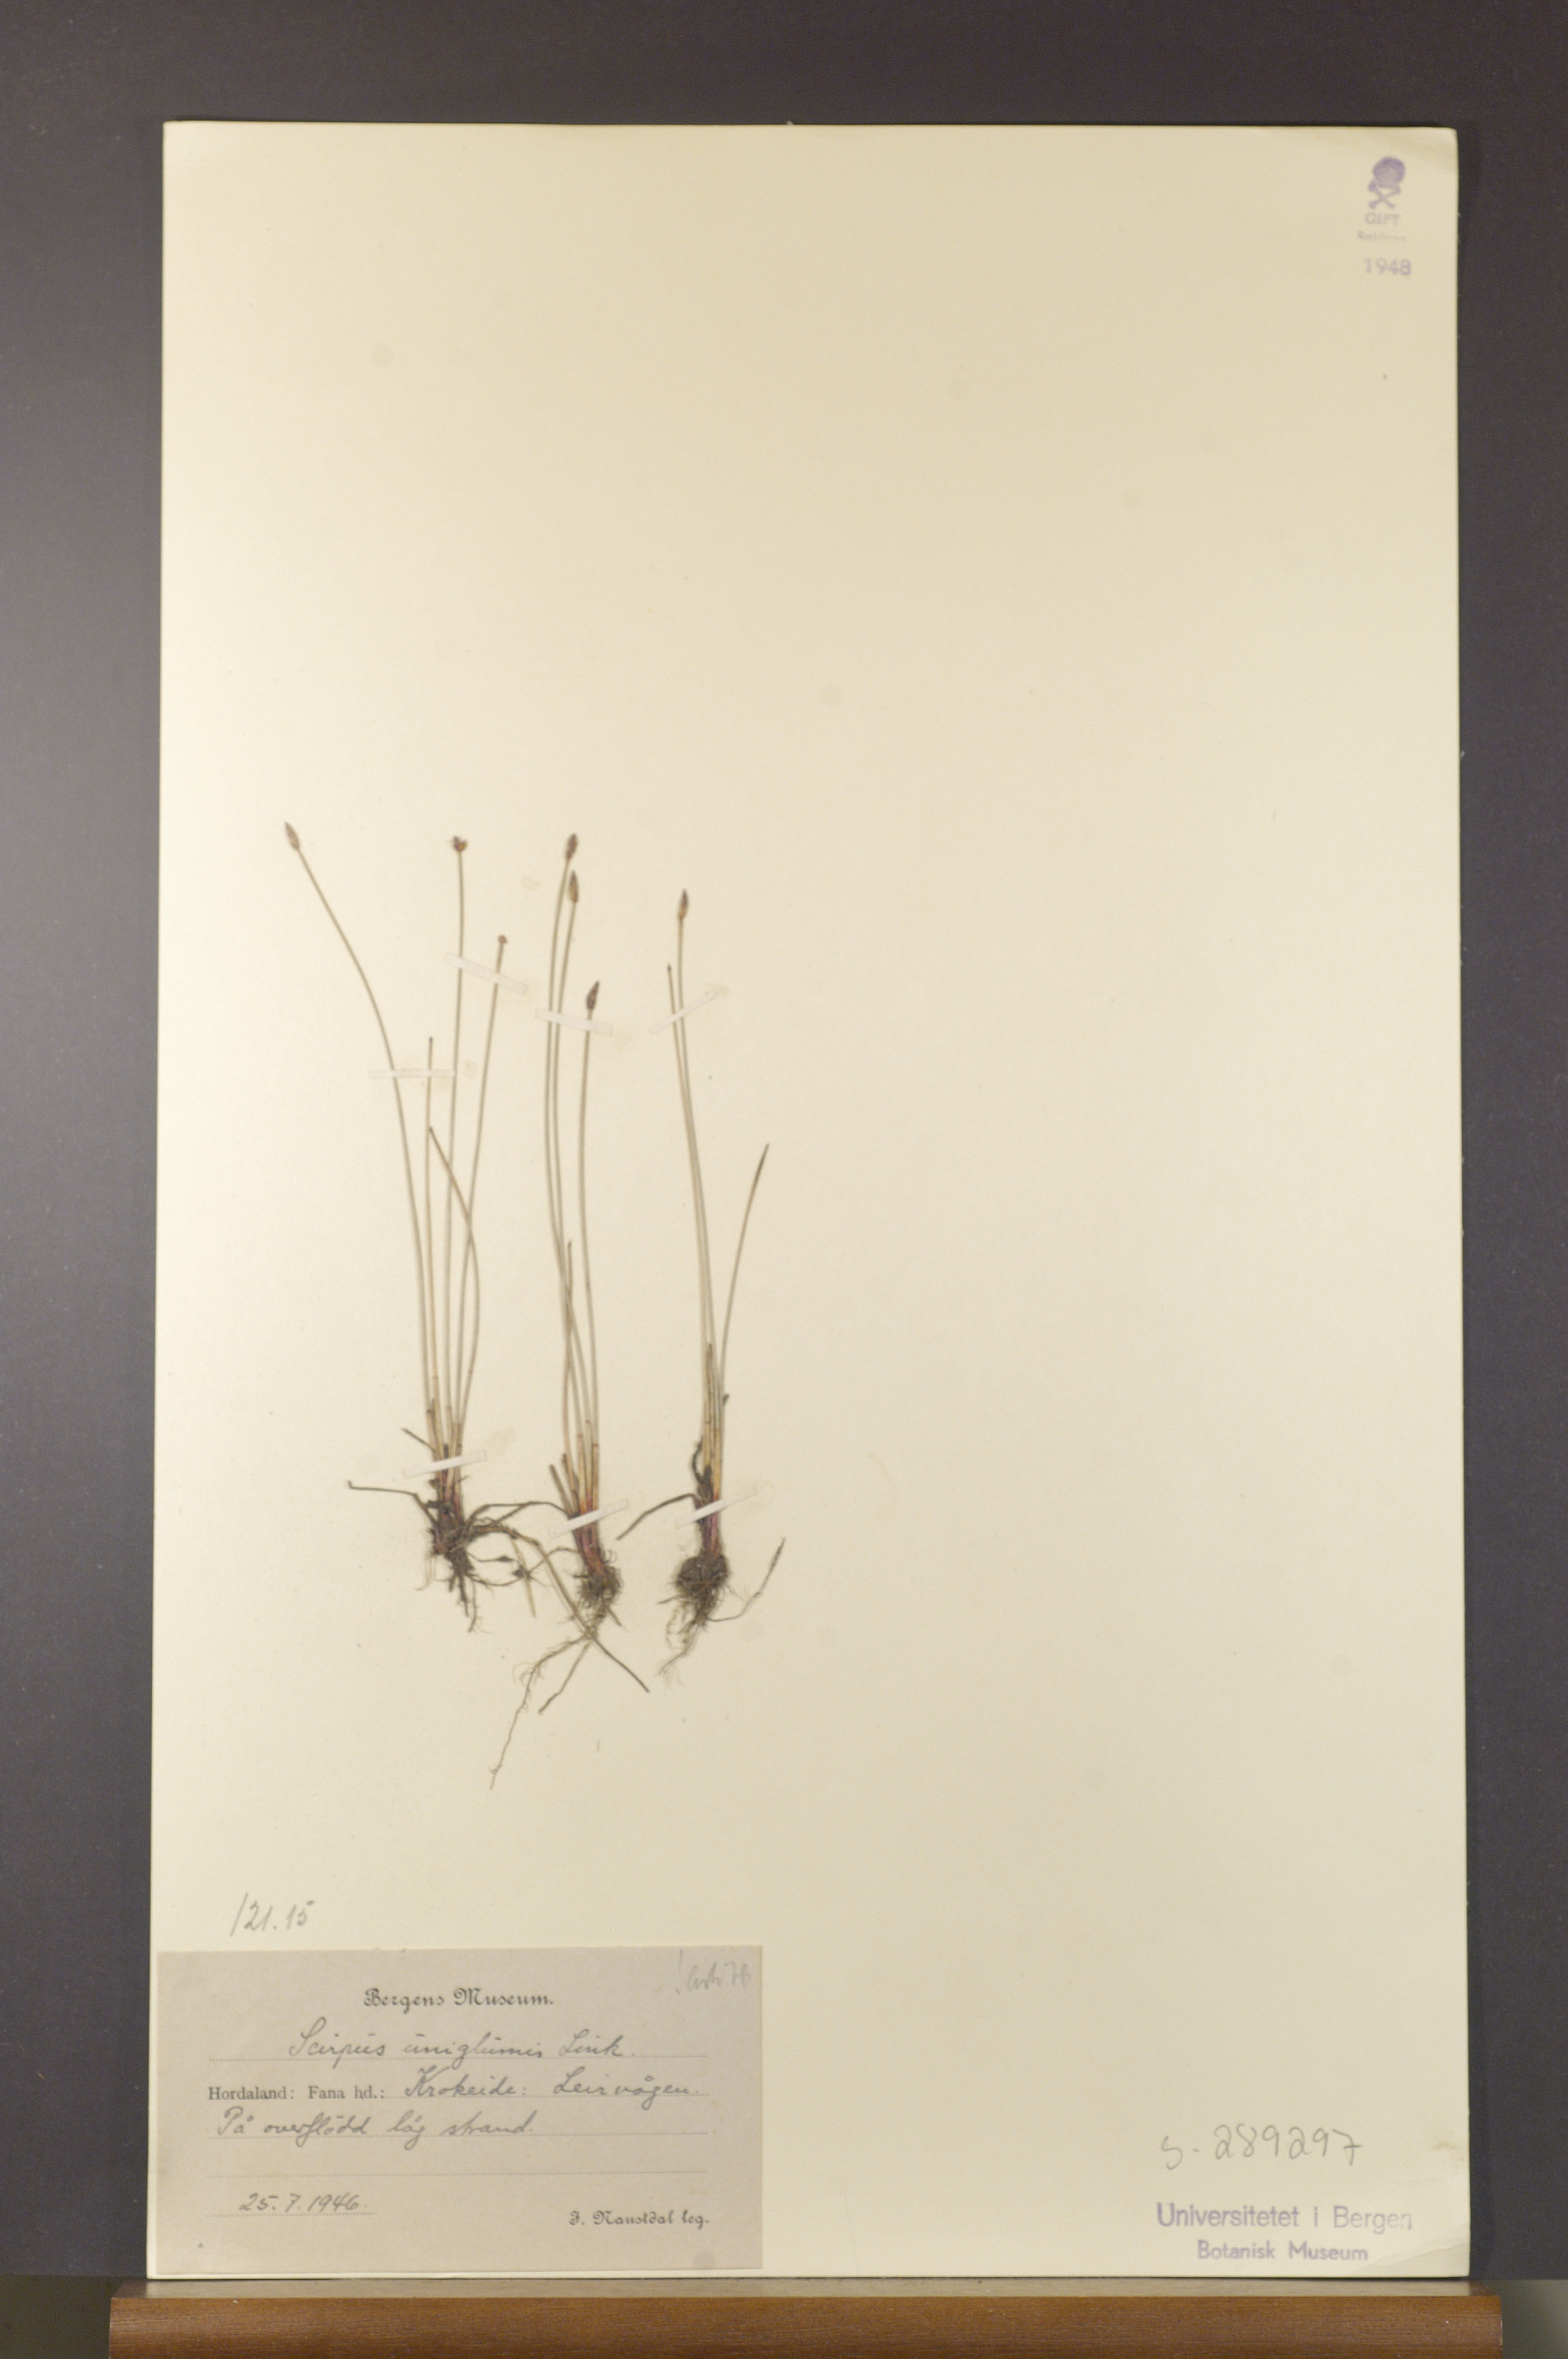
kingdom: Plantae
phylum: Tracheophyta
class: Liliopsida
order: Poales
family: Cyperaceae
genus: Eleocharis
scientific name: Eleocharis uniglumis
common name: Slender spike-rush
